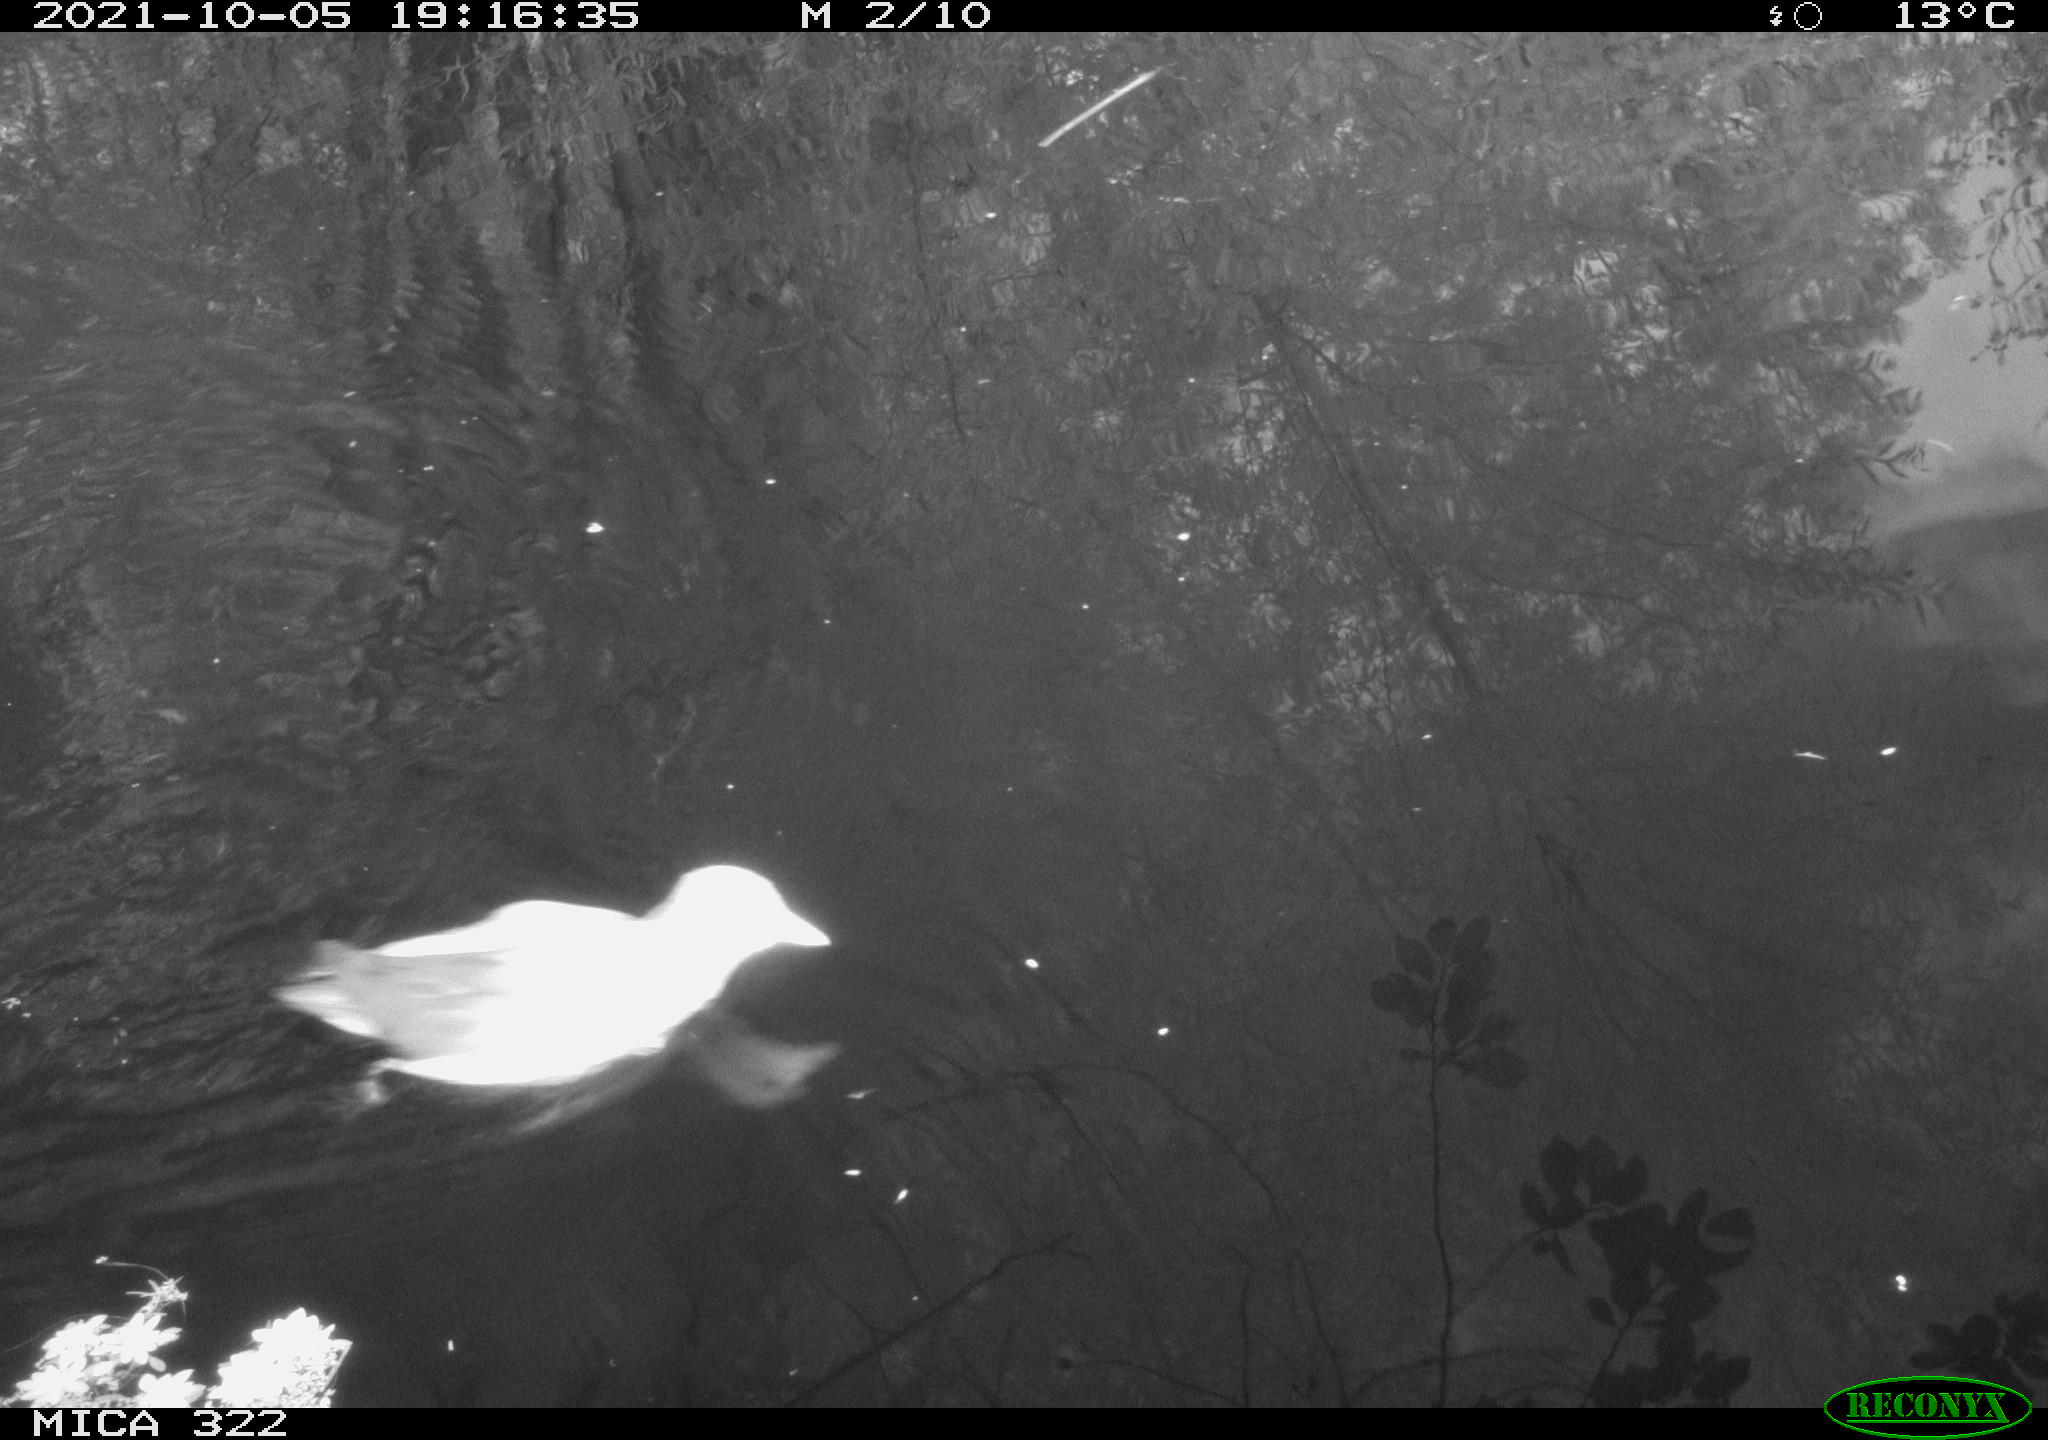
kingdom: Animalia
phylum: Chordata
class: Aves
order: Gruiformes
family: Rallidae
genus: Gallinula
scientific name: Gallinula chloropus
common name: Common moorhen
